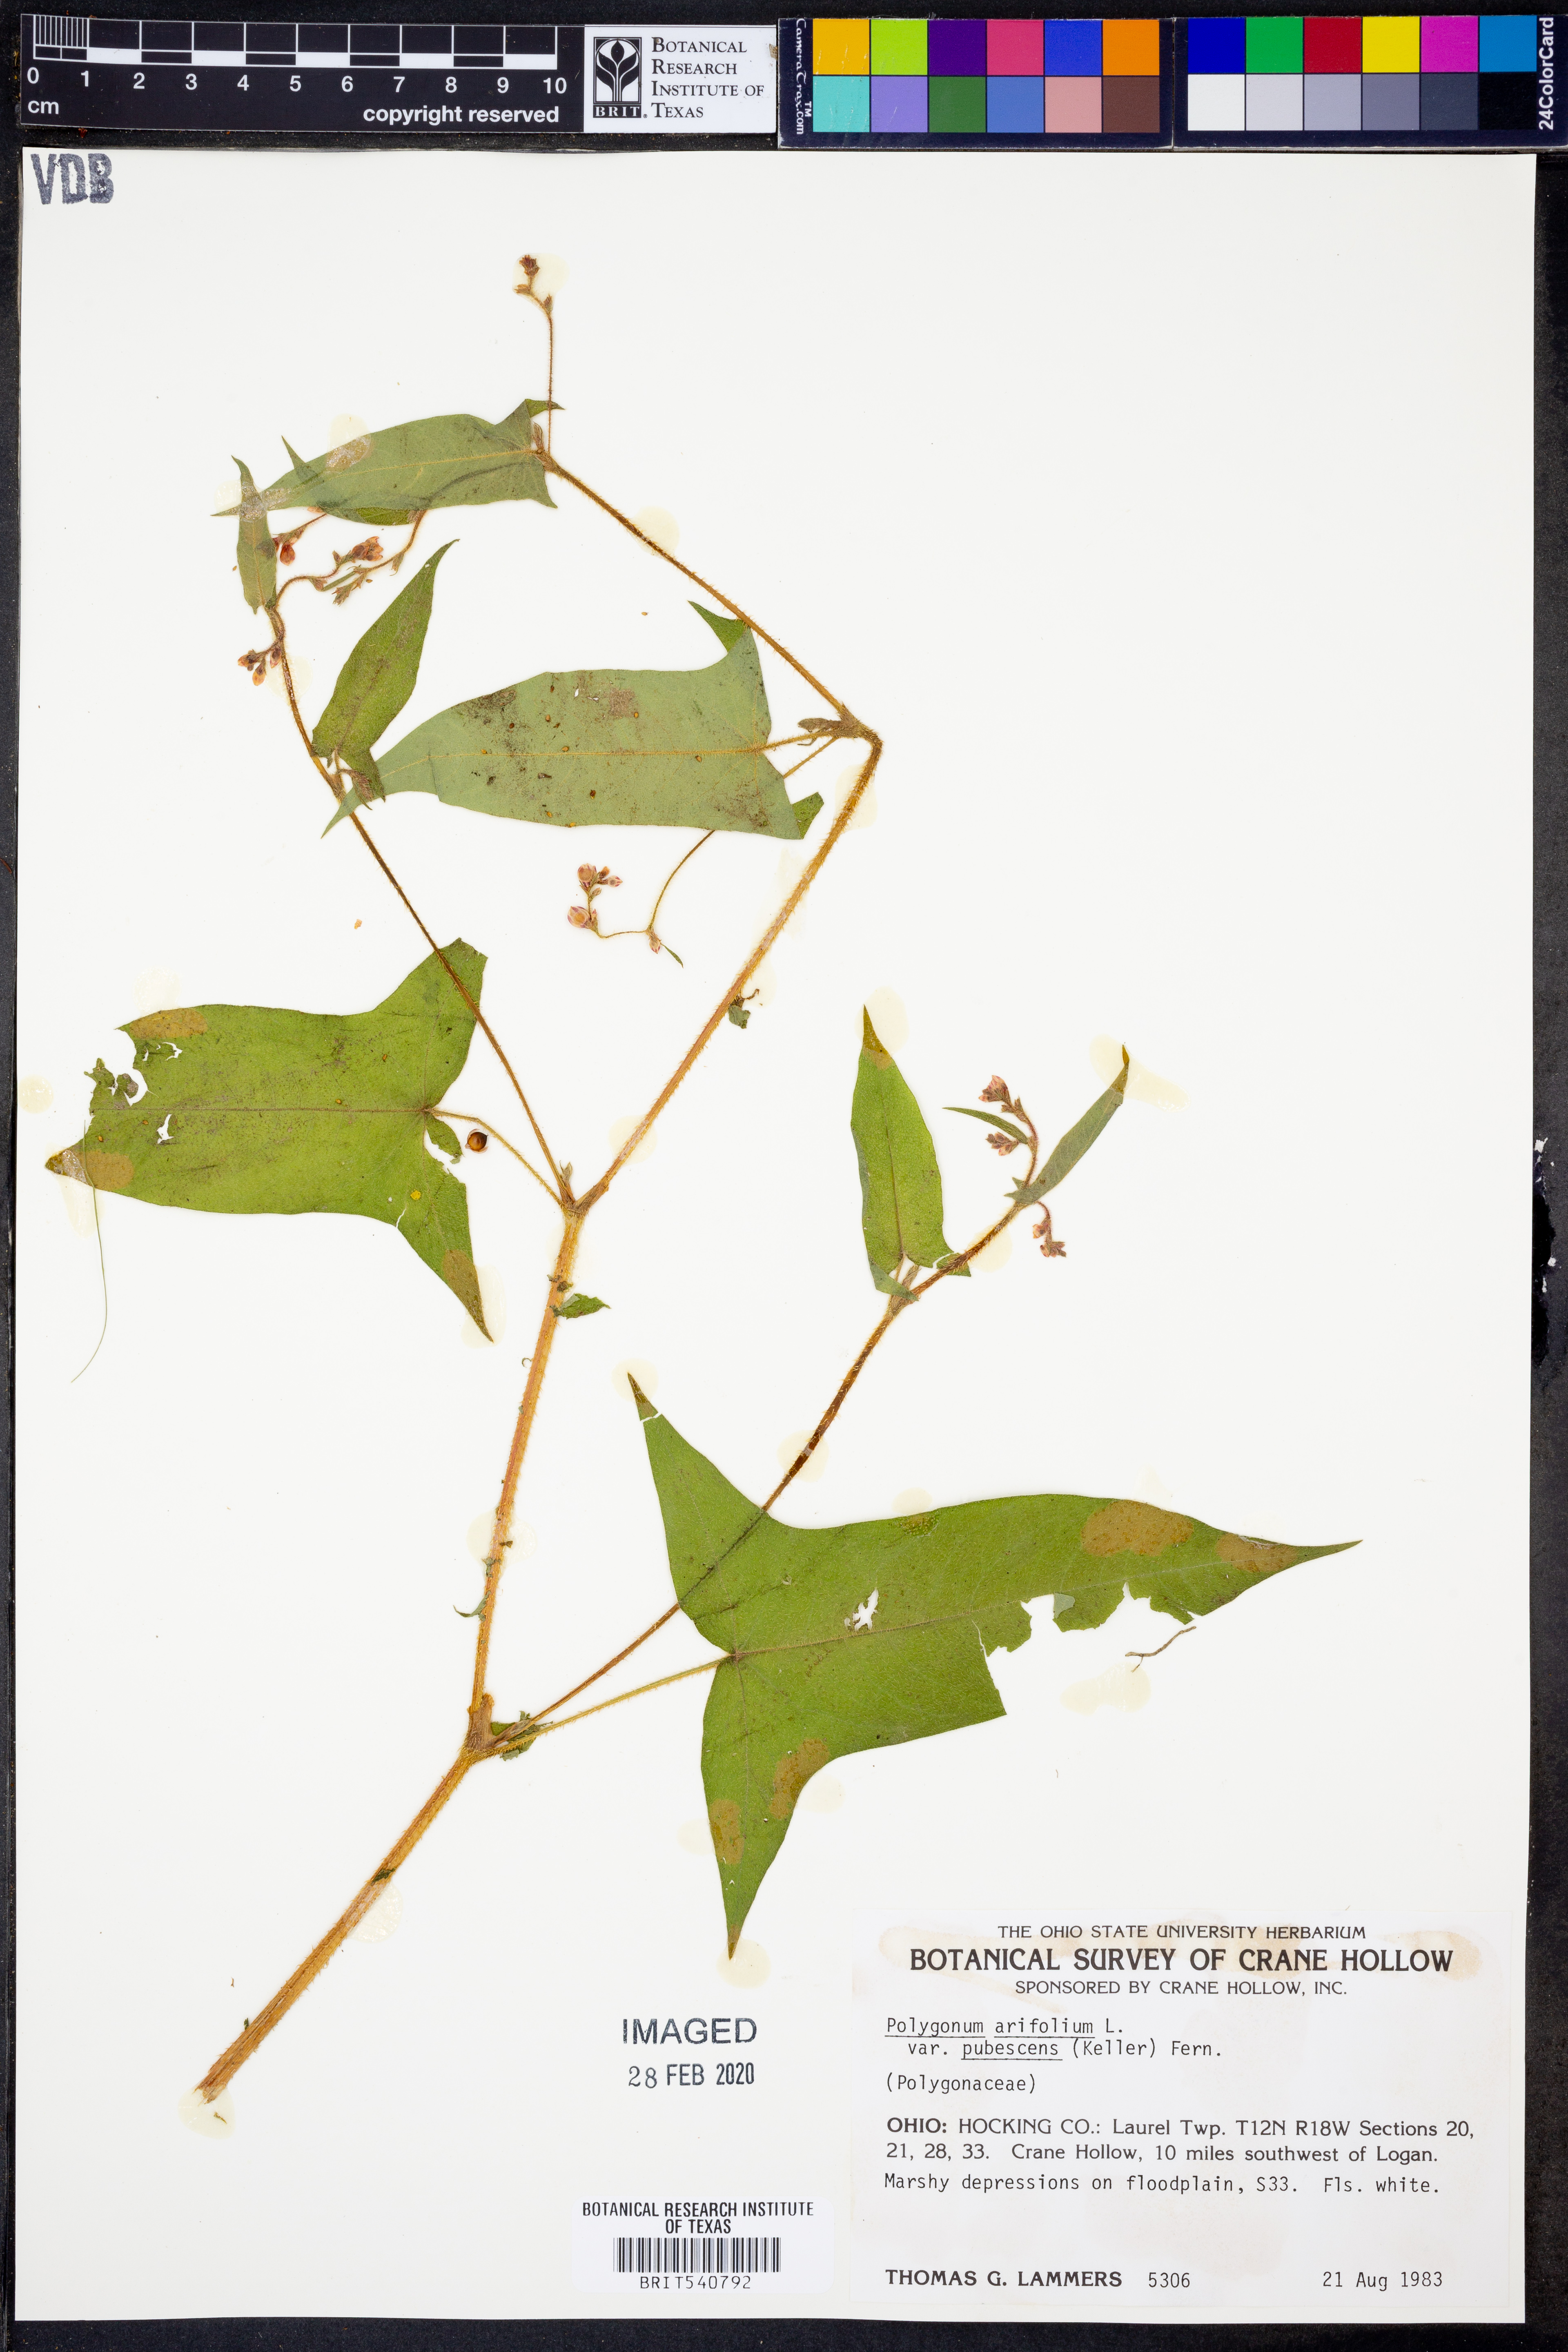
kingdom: Plantae
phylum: Tracheophyta
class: Magnoliopsida
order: Caryophyllales
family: Polygonaceae
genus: Persicaria
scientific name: Persicaria arifolia
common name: Halberd-leaved tear-thumb
